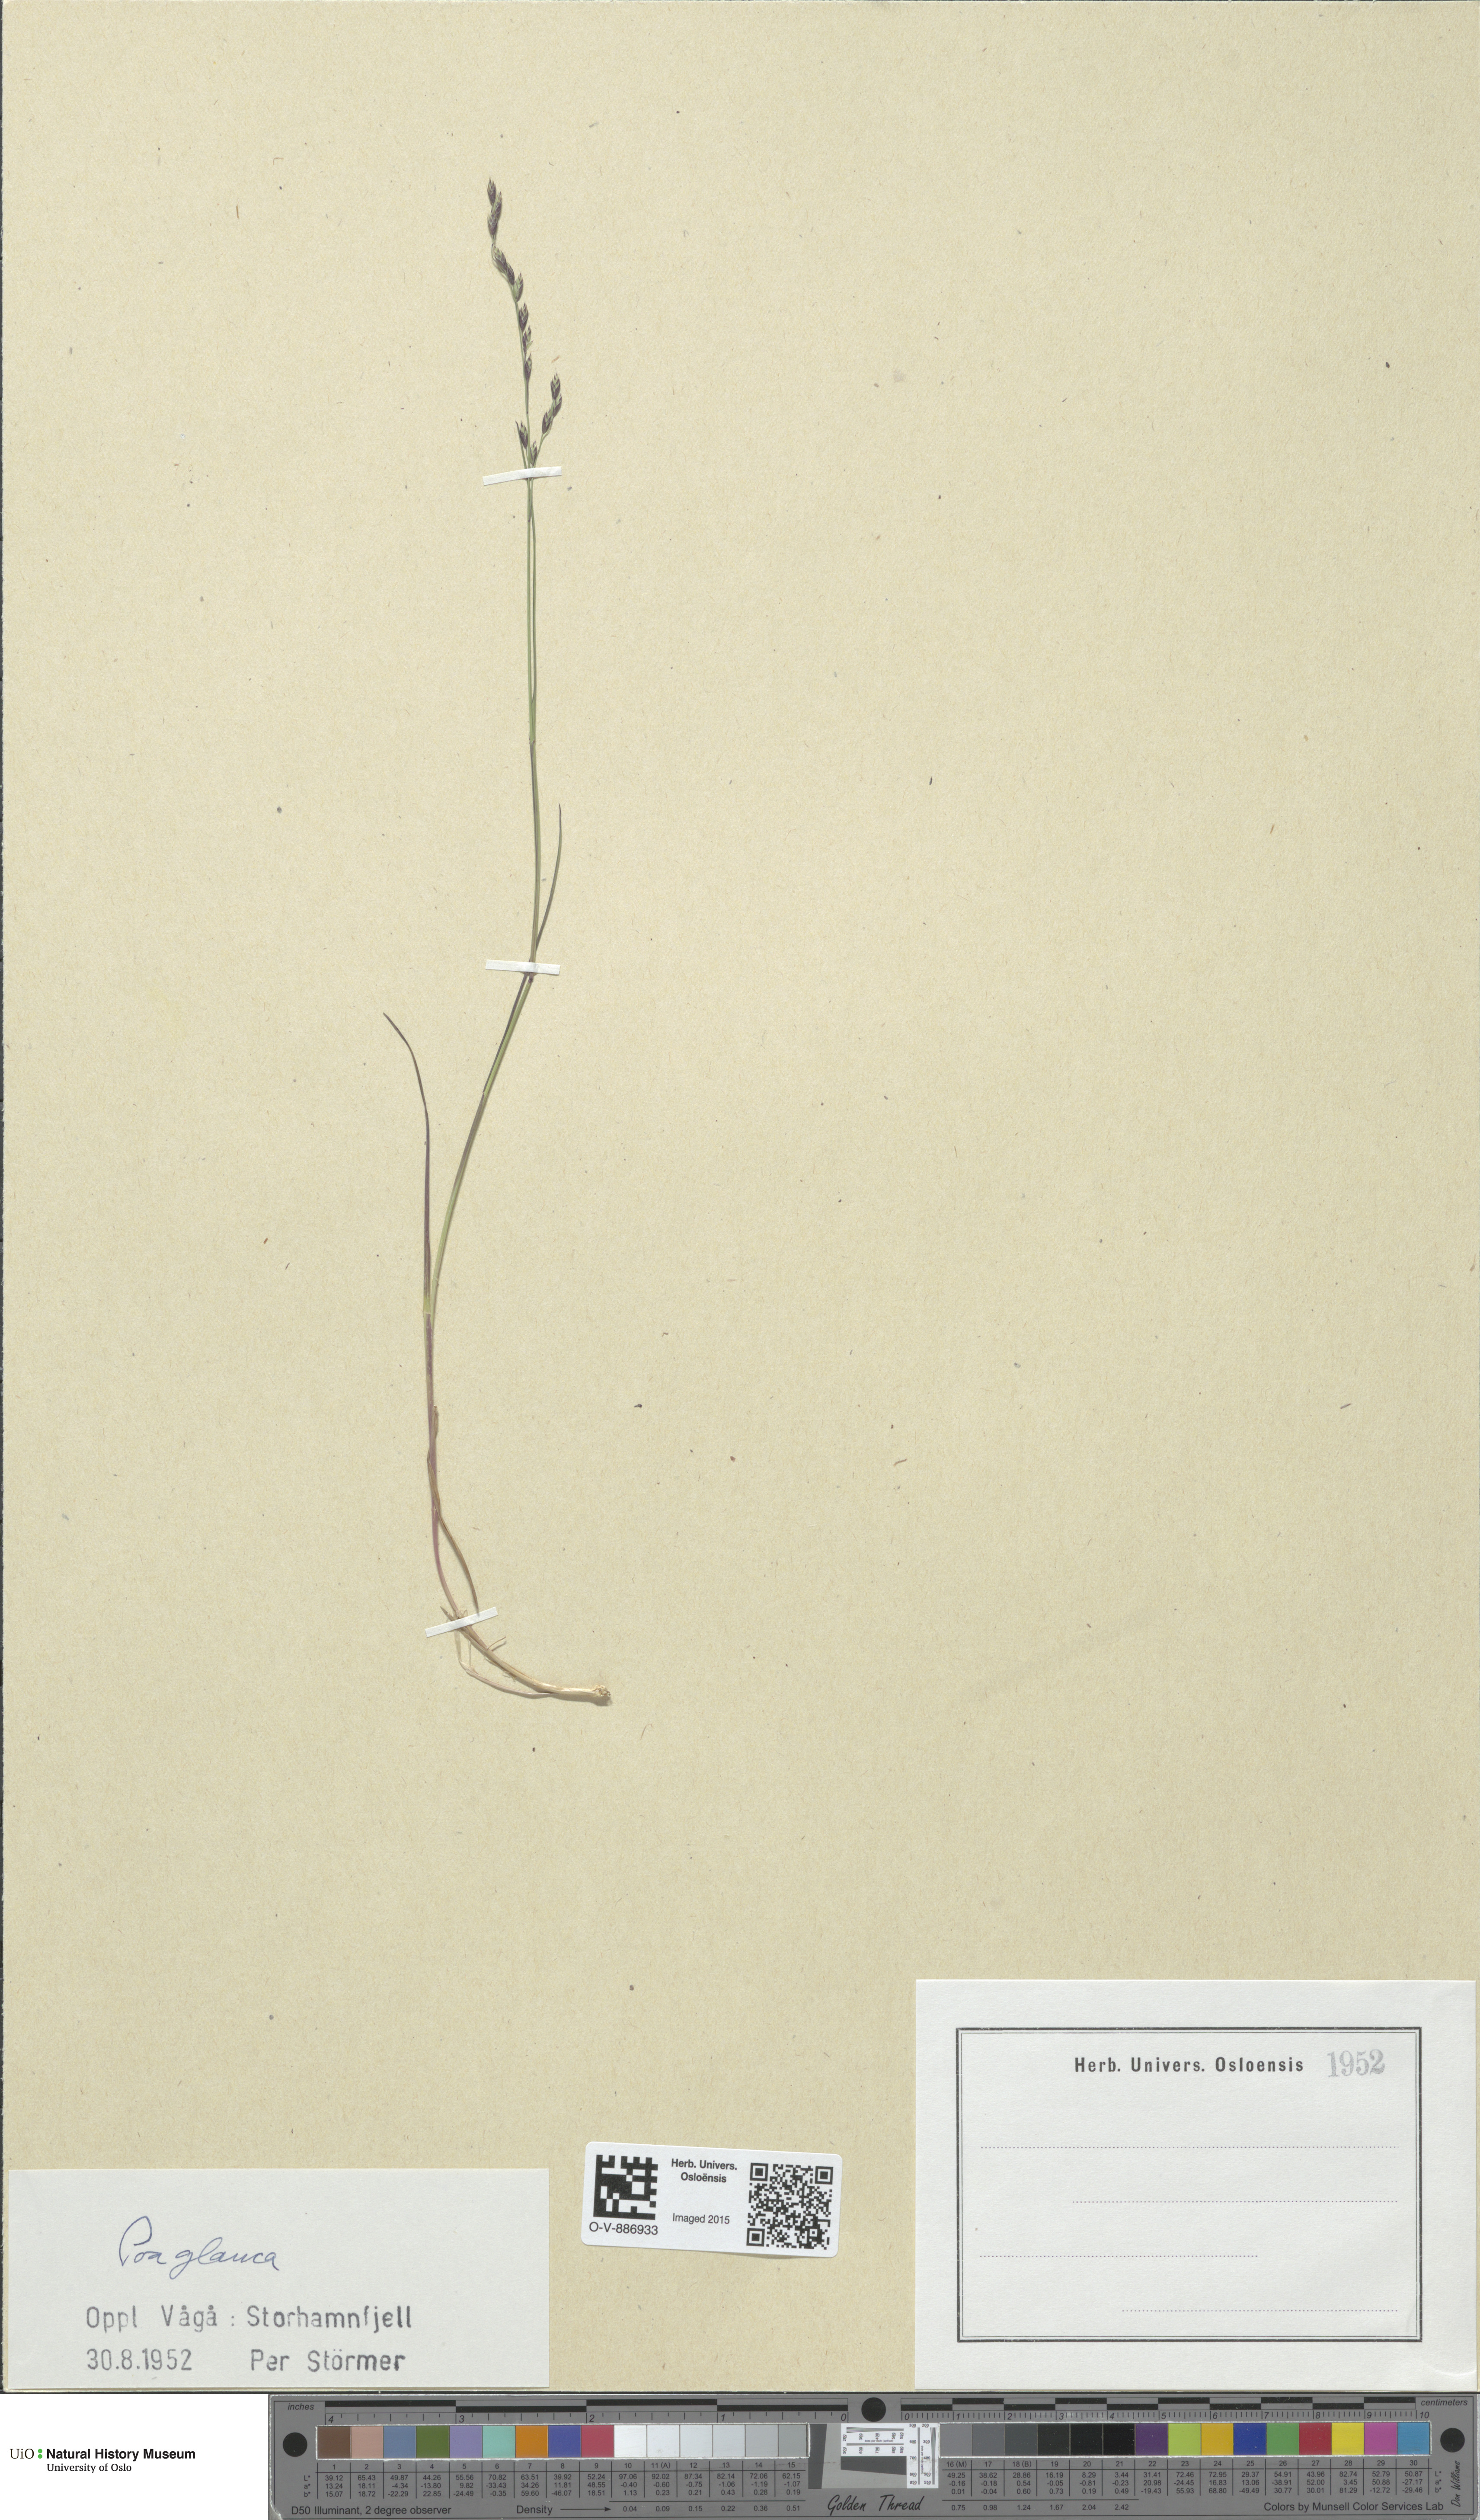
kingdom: Plantae
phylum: Tracheophyta
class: Liliopsida
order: Poales
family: Poaceae
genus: Poa
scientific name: Poa glauca
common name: Glaucous bluegrass
